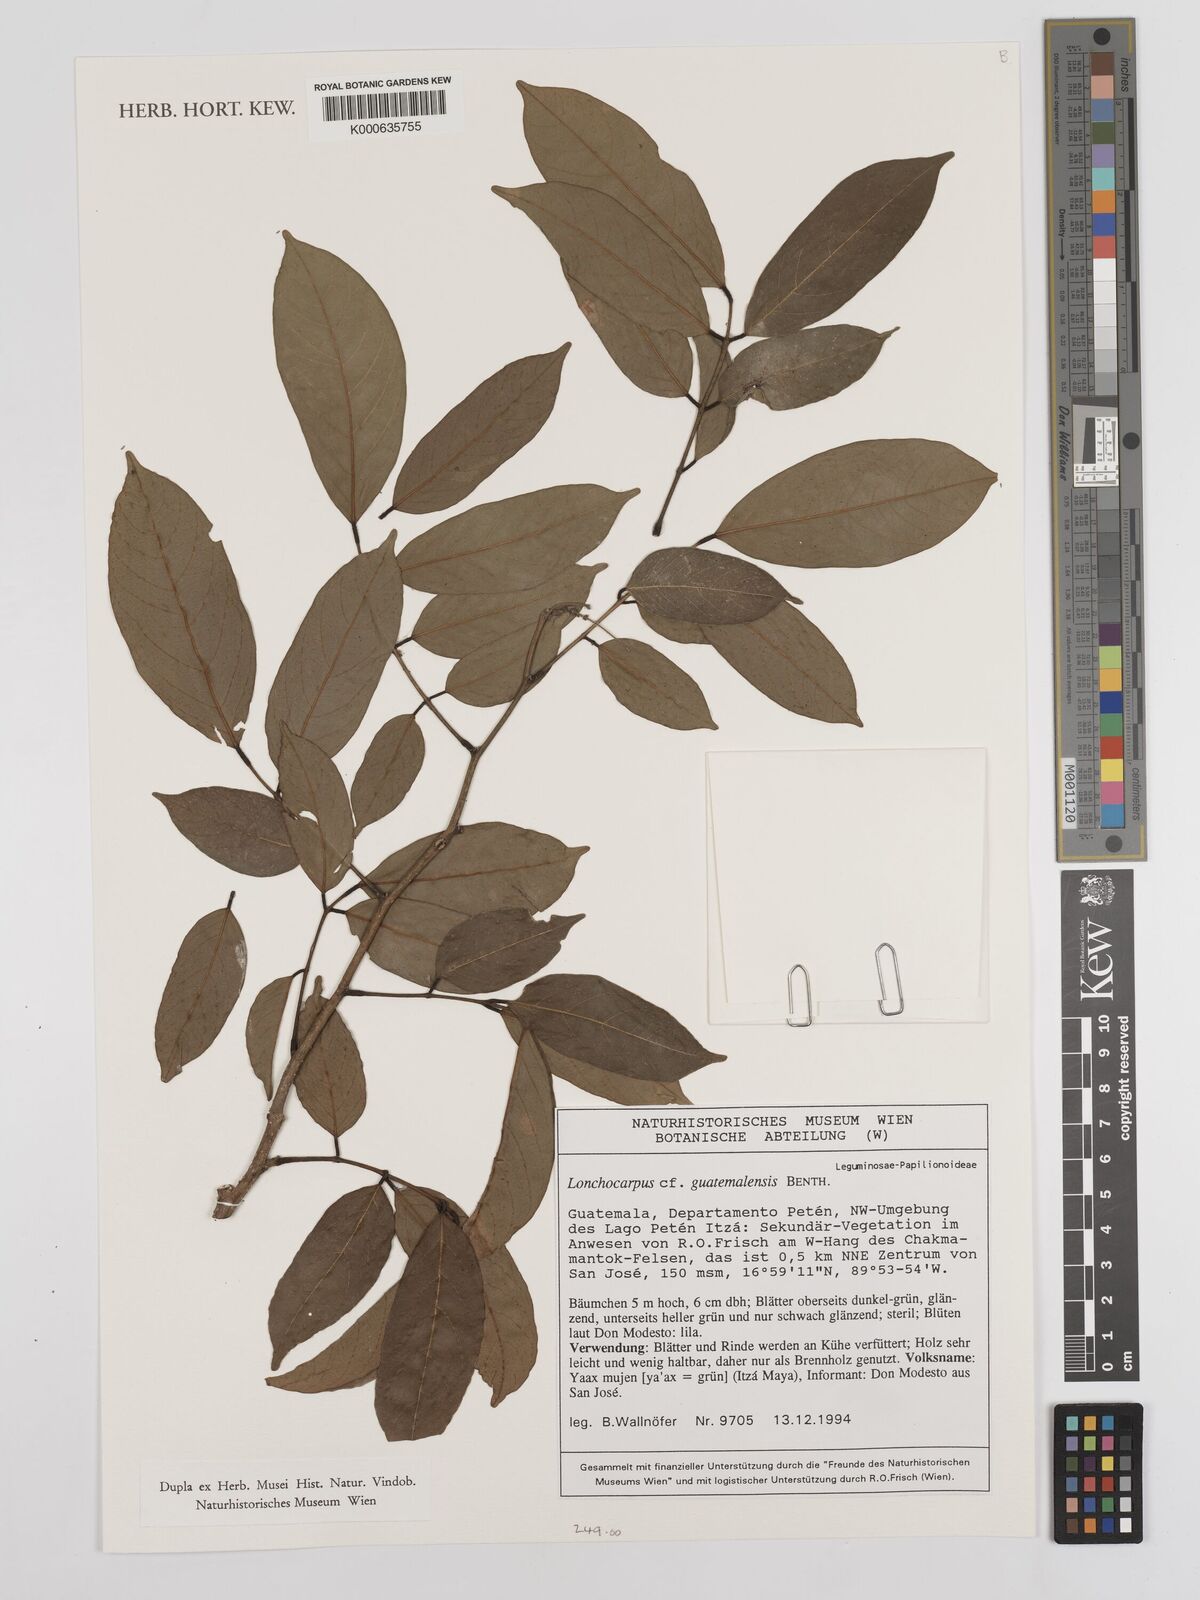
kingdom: Plantae
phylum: Tracheophyta
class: Magnoliopsida
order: Fabales
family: Fabaceae
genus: Lonchocarpus
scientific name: Lonchocarpus guatemalensis
